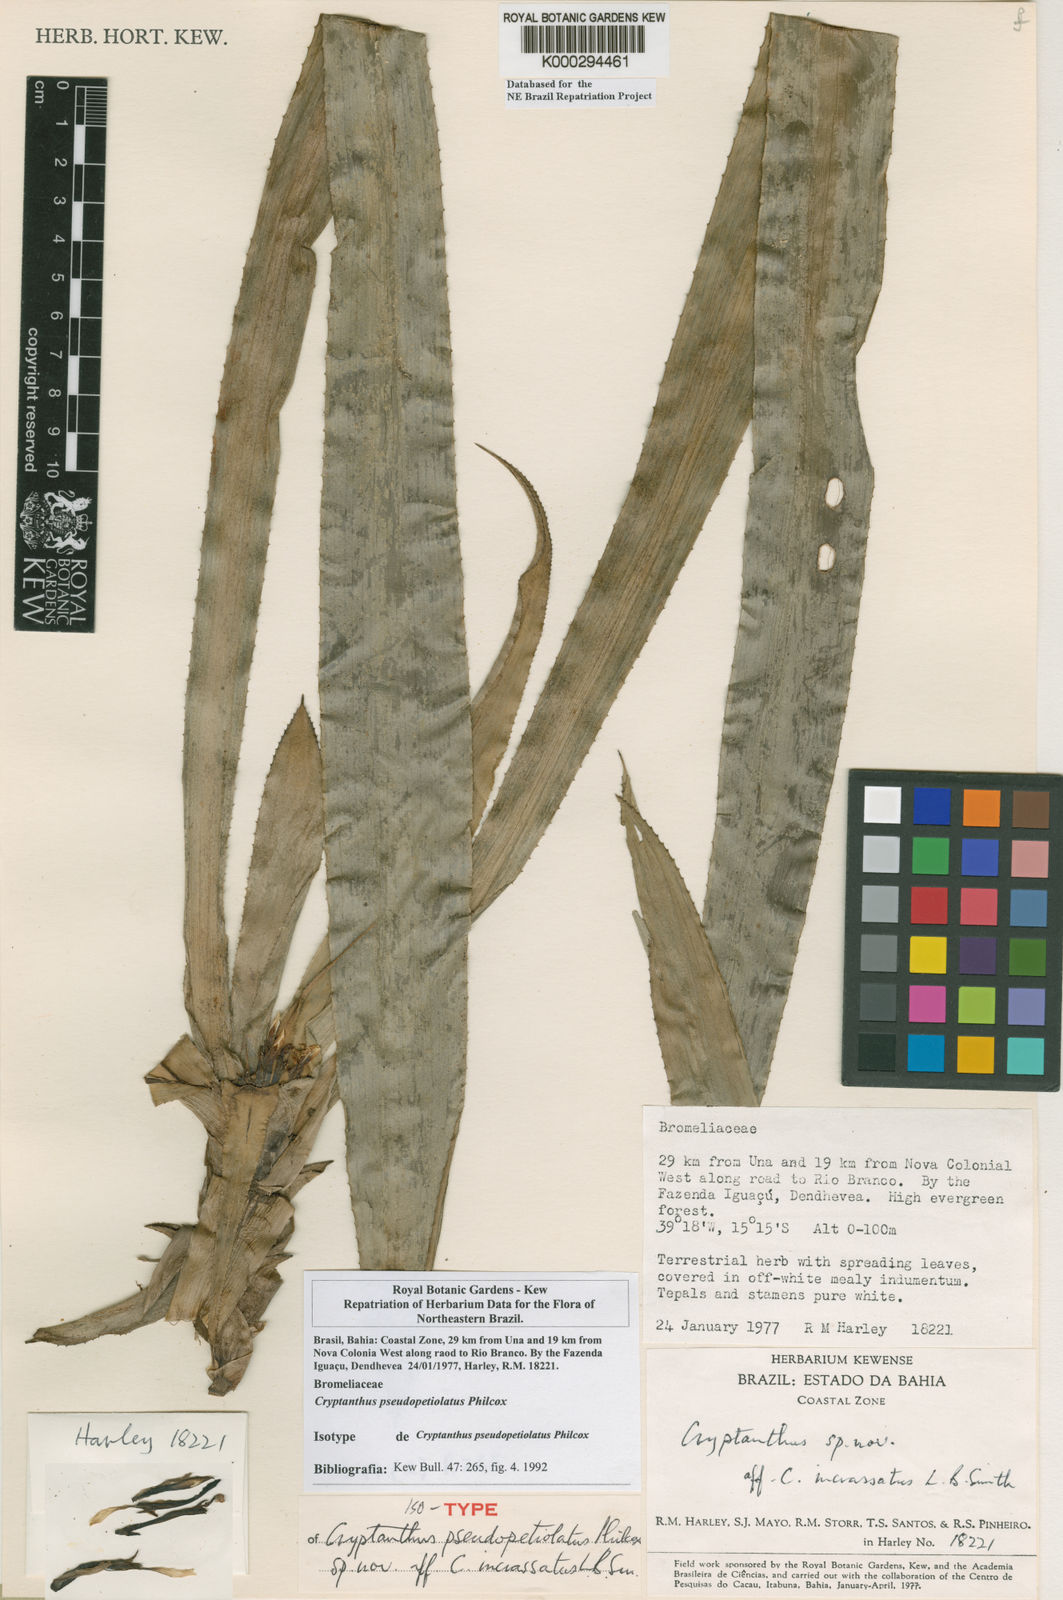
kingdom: Plantae
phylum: Tracheophyta
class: Liliopsida
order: Poales
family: Bromeliaceae
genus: Cryptanthus
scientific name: Cryptanthus pseudopetiolatus
